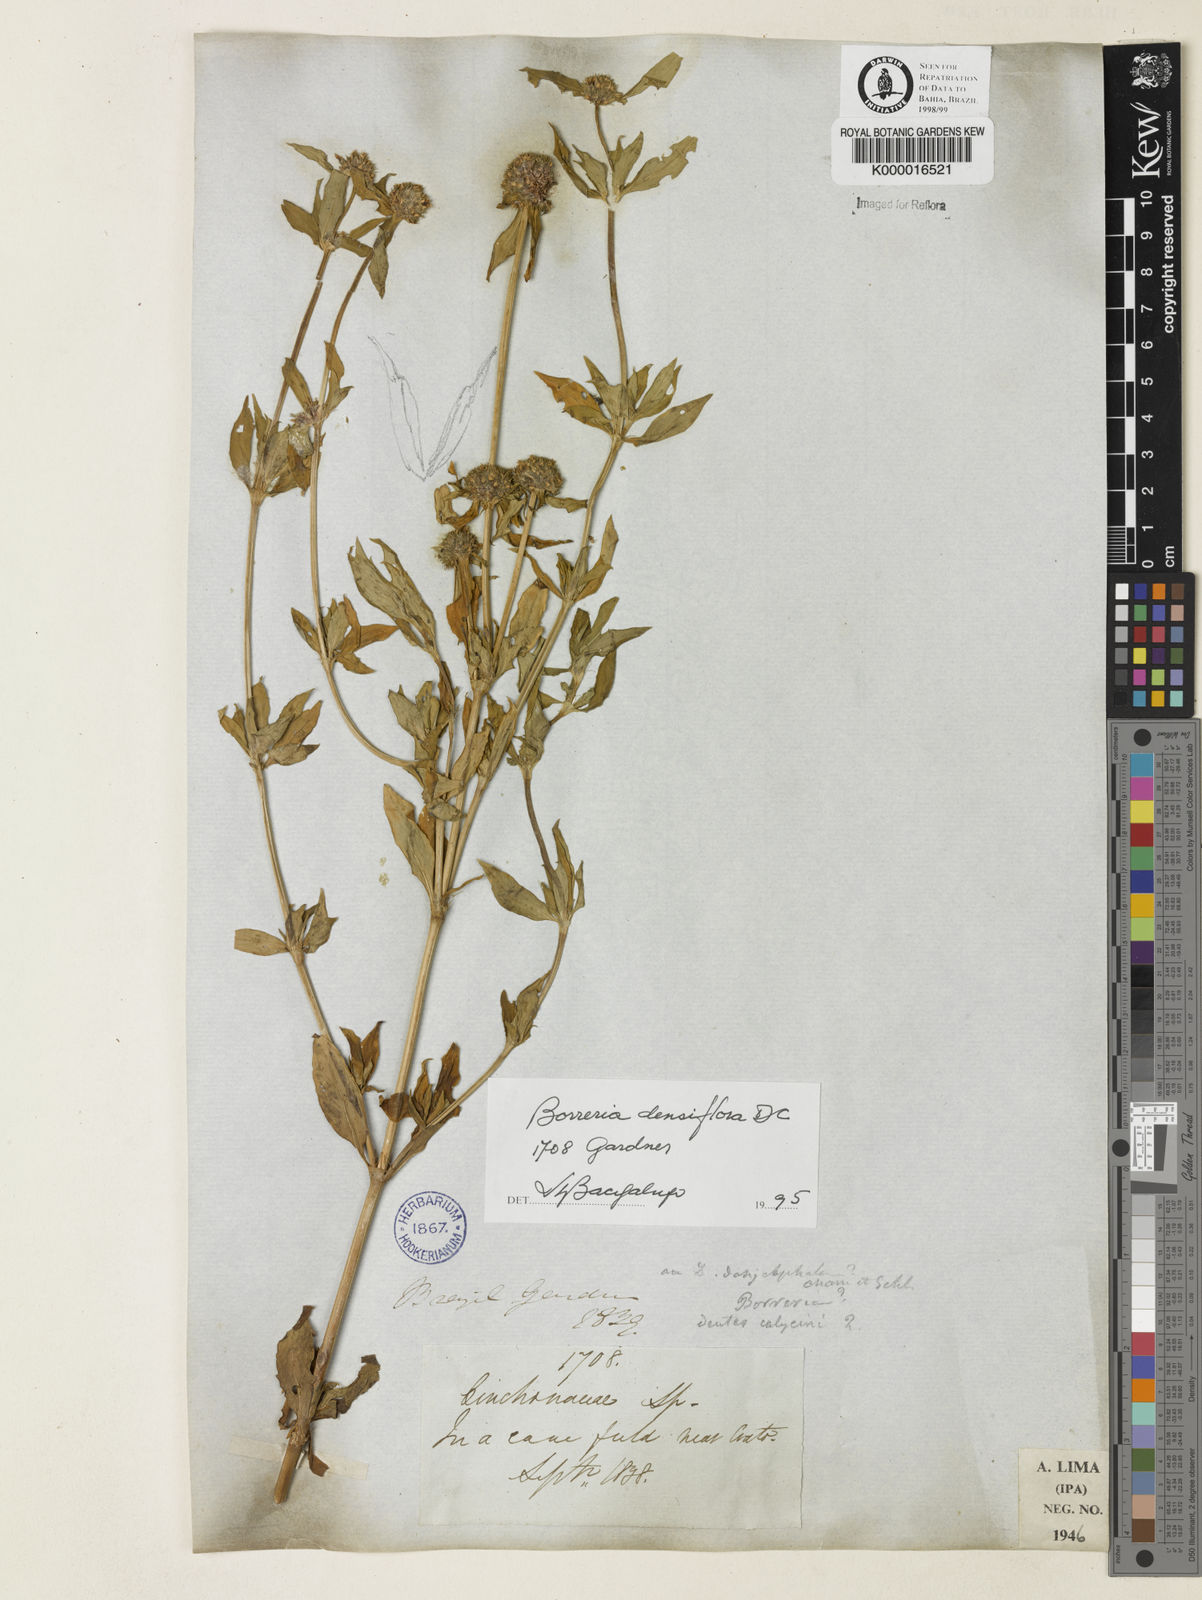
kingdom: Plantae
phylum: Tracheophyta
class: Magnoliopsida
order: Gentianales
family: Rubiaceae
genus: Spermacoce
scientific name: Spermacoce densiflora
